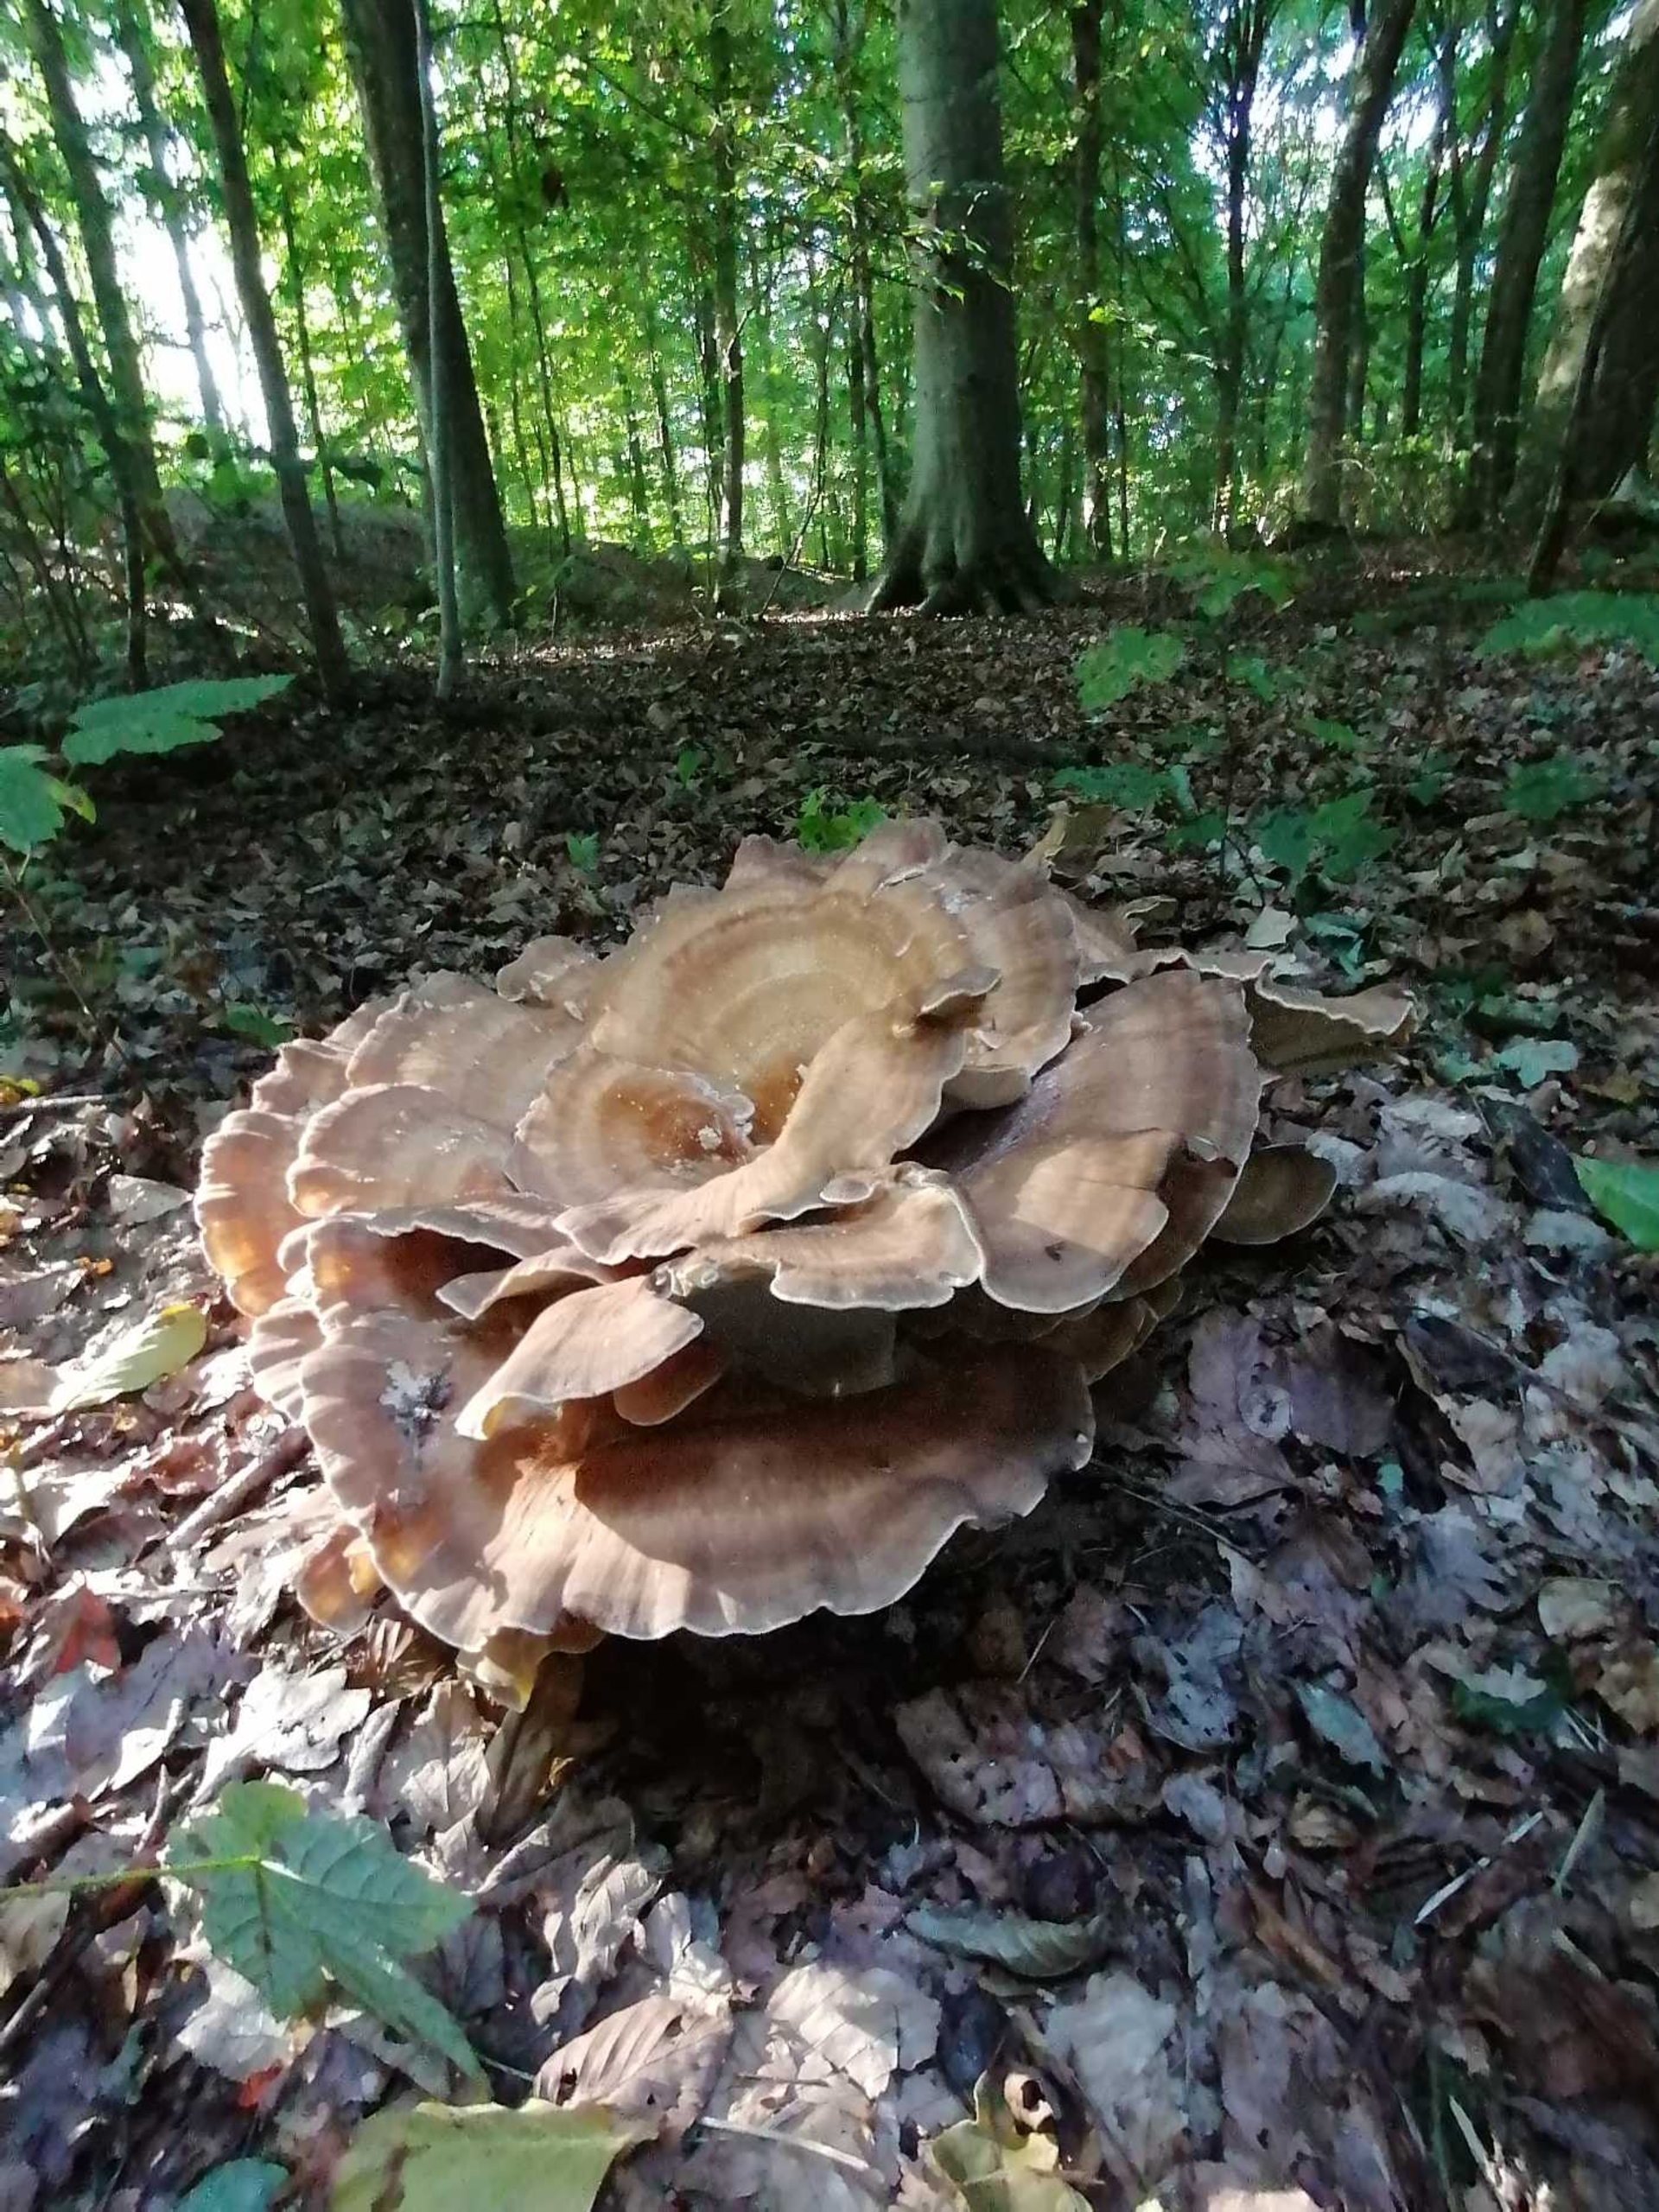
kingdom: Fungi
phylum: Basidiomycota
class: Agaricomycetes
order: Polyporales
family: Meripilaceae
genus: Meripilus
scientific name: Meripilus giganteus
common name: Kæmpeporesvamp
